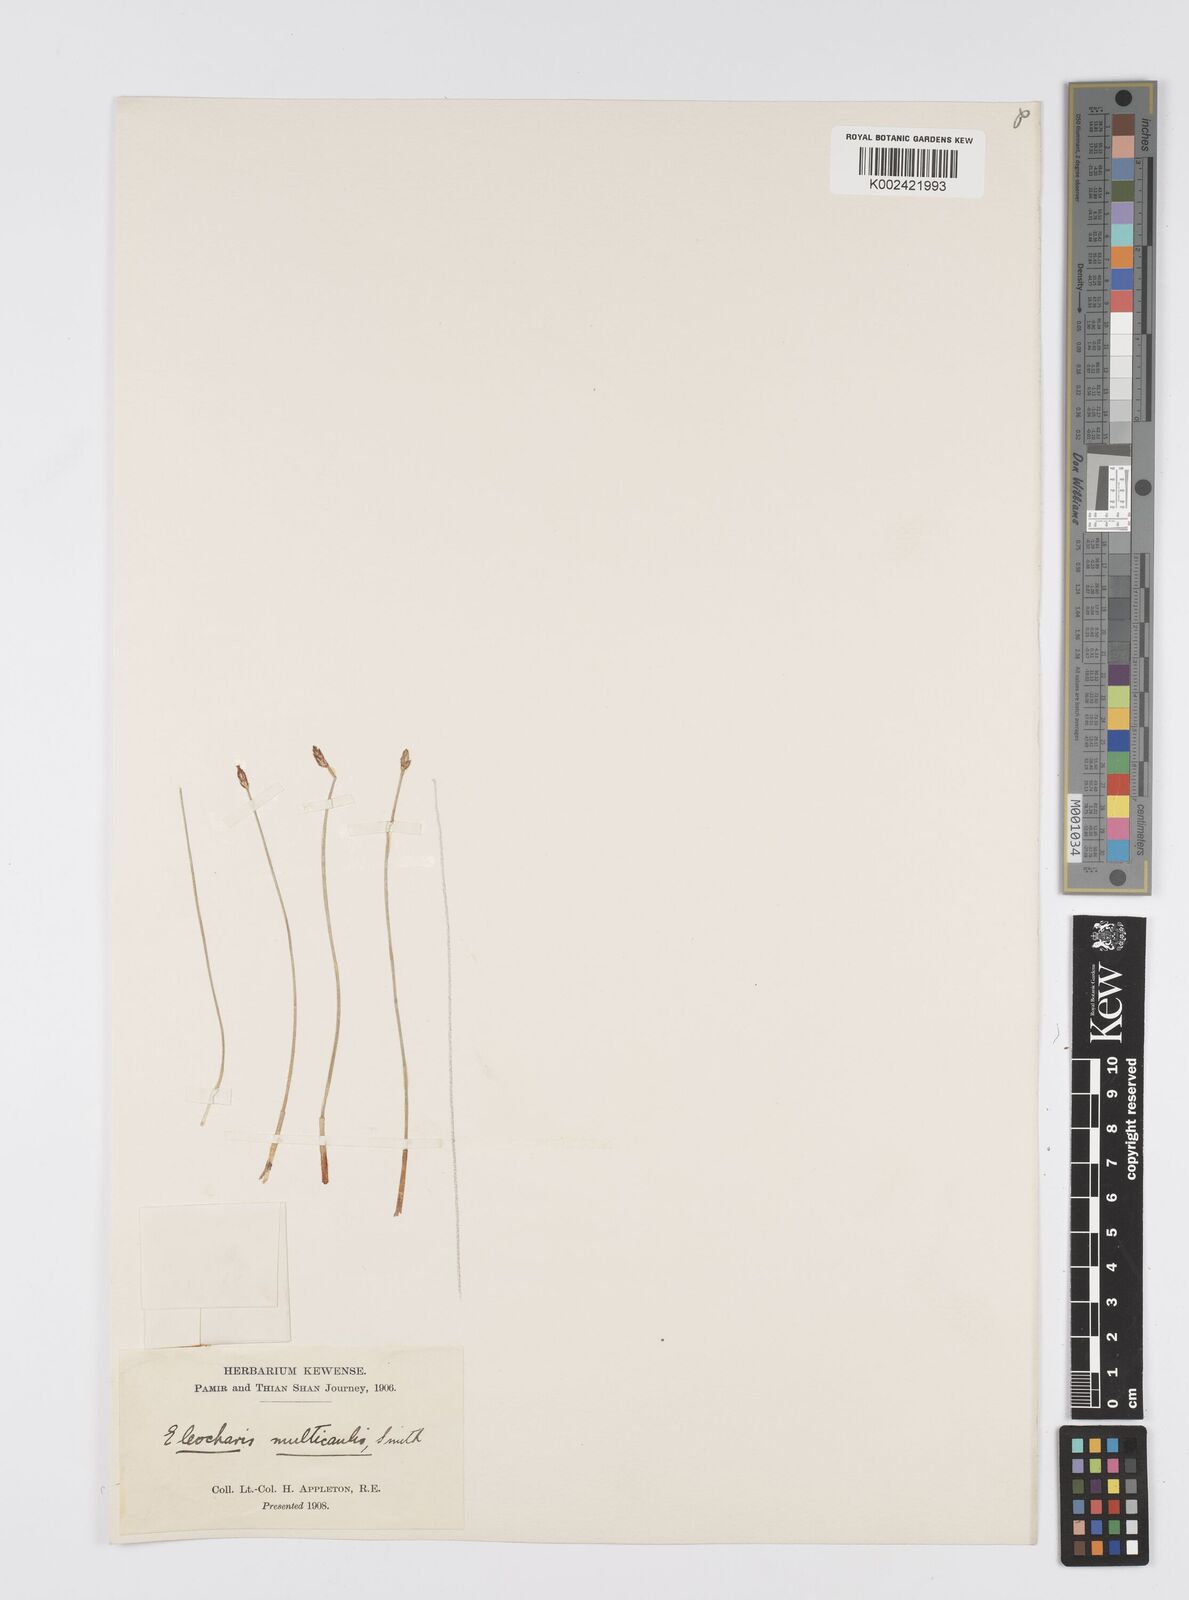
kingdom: Plantae
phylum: Tracheophyta
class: Liliopsida
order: Poales
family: Cyperaceae
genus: Eleocharis
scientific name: Eleocharis multicaulis
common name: Many-stalked spike-rush
